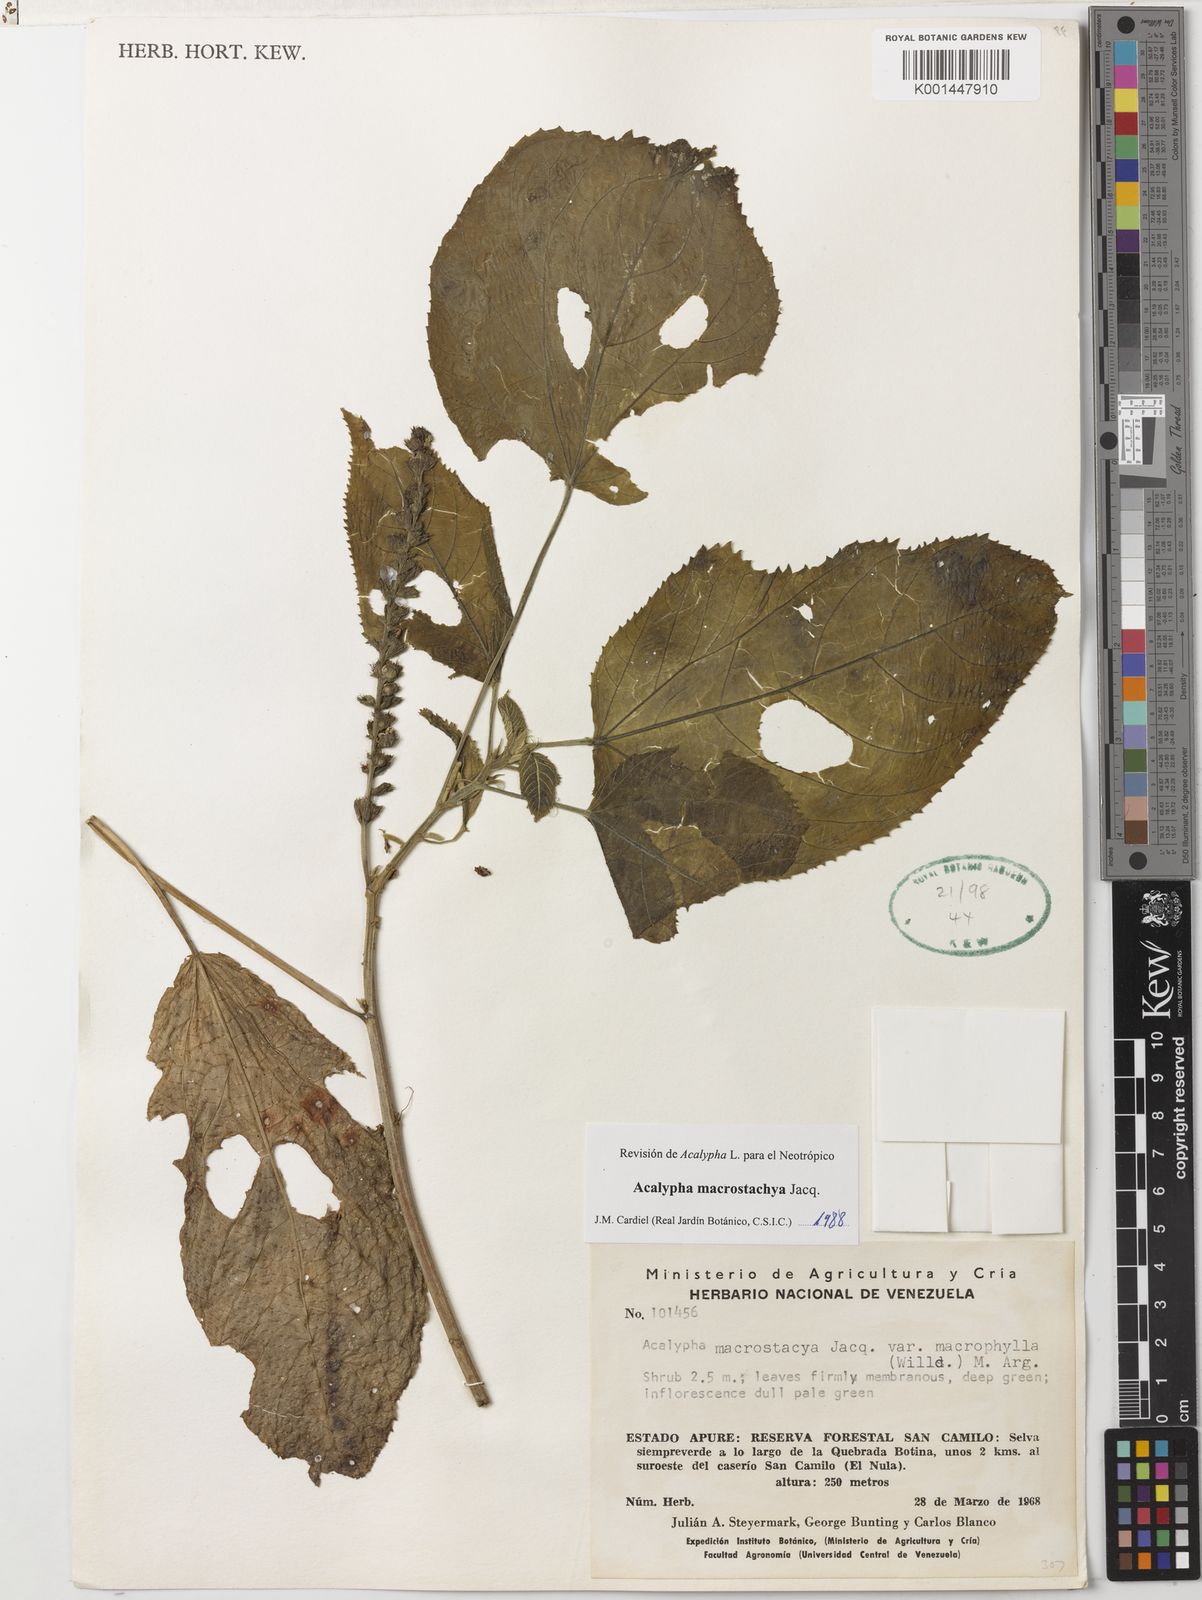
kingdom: Plantae
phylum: Tracheophyta
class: Magnoliopsida
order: Malpighiales
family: Euphorbiaceae
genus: Acalypha
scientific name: Acalypha macrostachya
